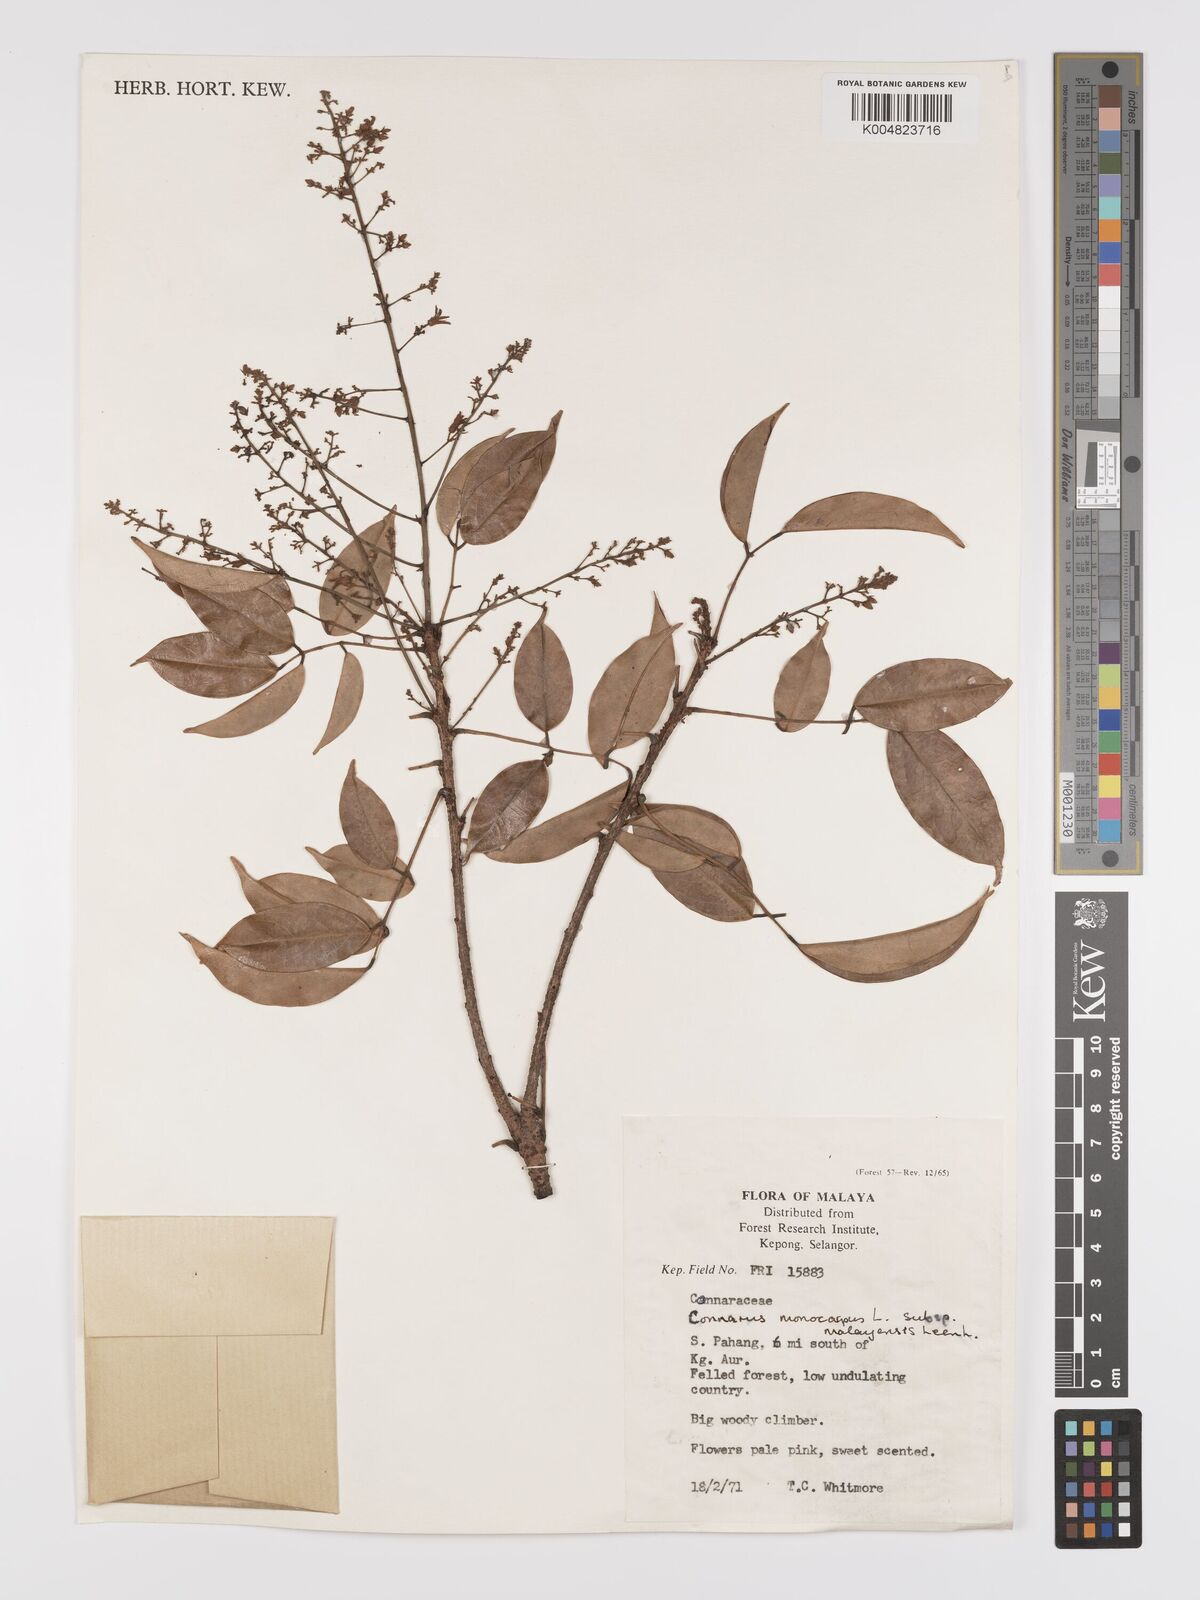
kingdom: Plantae
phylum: Tracheophyta
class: Magnoliopsida
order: Oxalidales
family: Connaraceae
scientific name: Connaraceae
